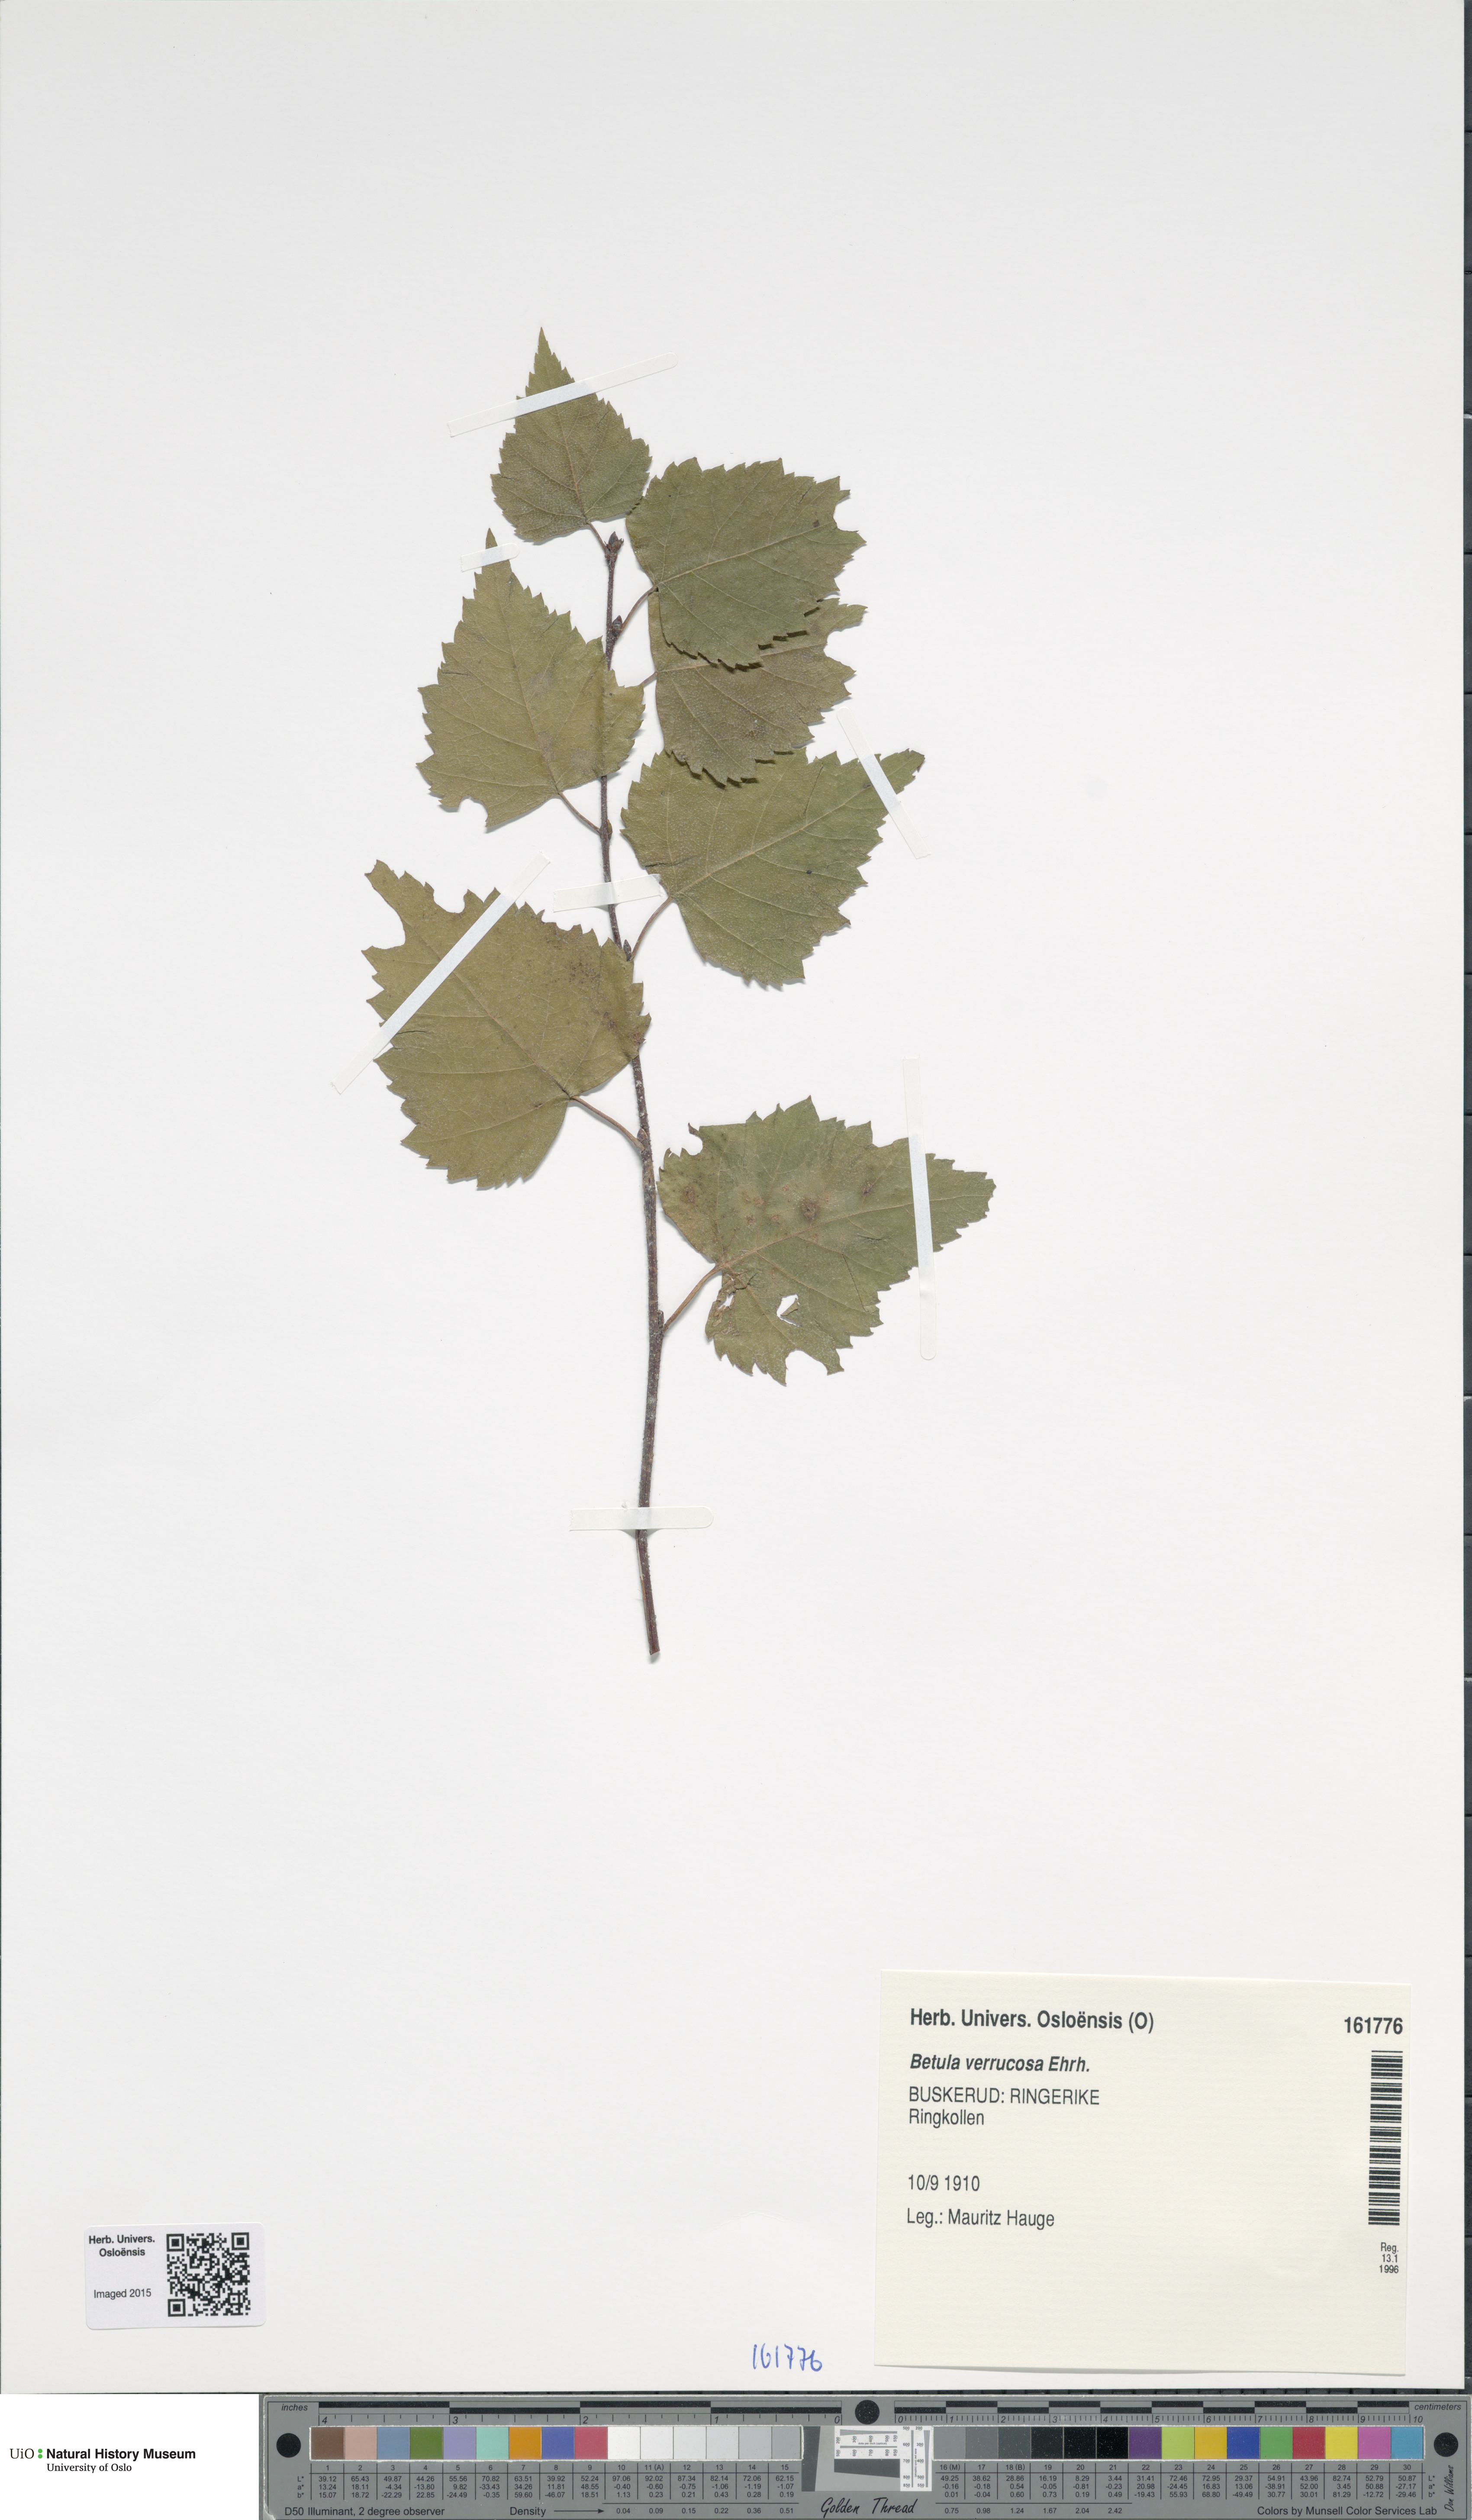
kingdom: Plantae
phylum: Tracheophyta
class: Magnoliopsida
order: Fagales
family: Betulaceae
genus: Betula
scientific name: Betula pendula
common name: Silver birch
